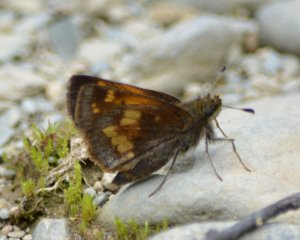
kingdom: Animalia
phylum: Arthropoda
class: Insecta
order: Lepidoptera
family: Hesperiidae
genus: Lon
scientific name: Lon hobomok
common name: Hobomok Skipper
